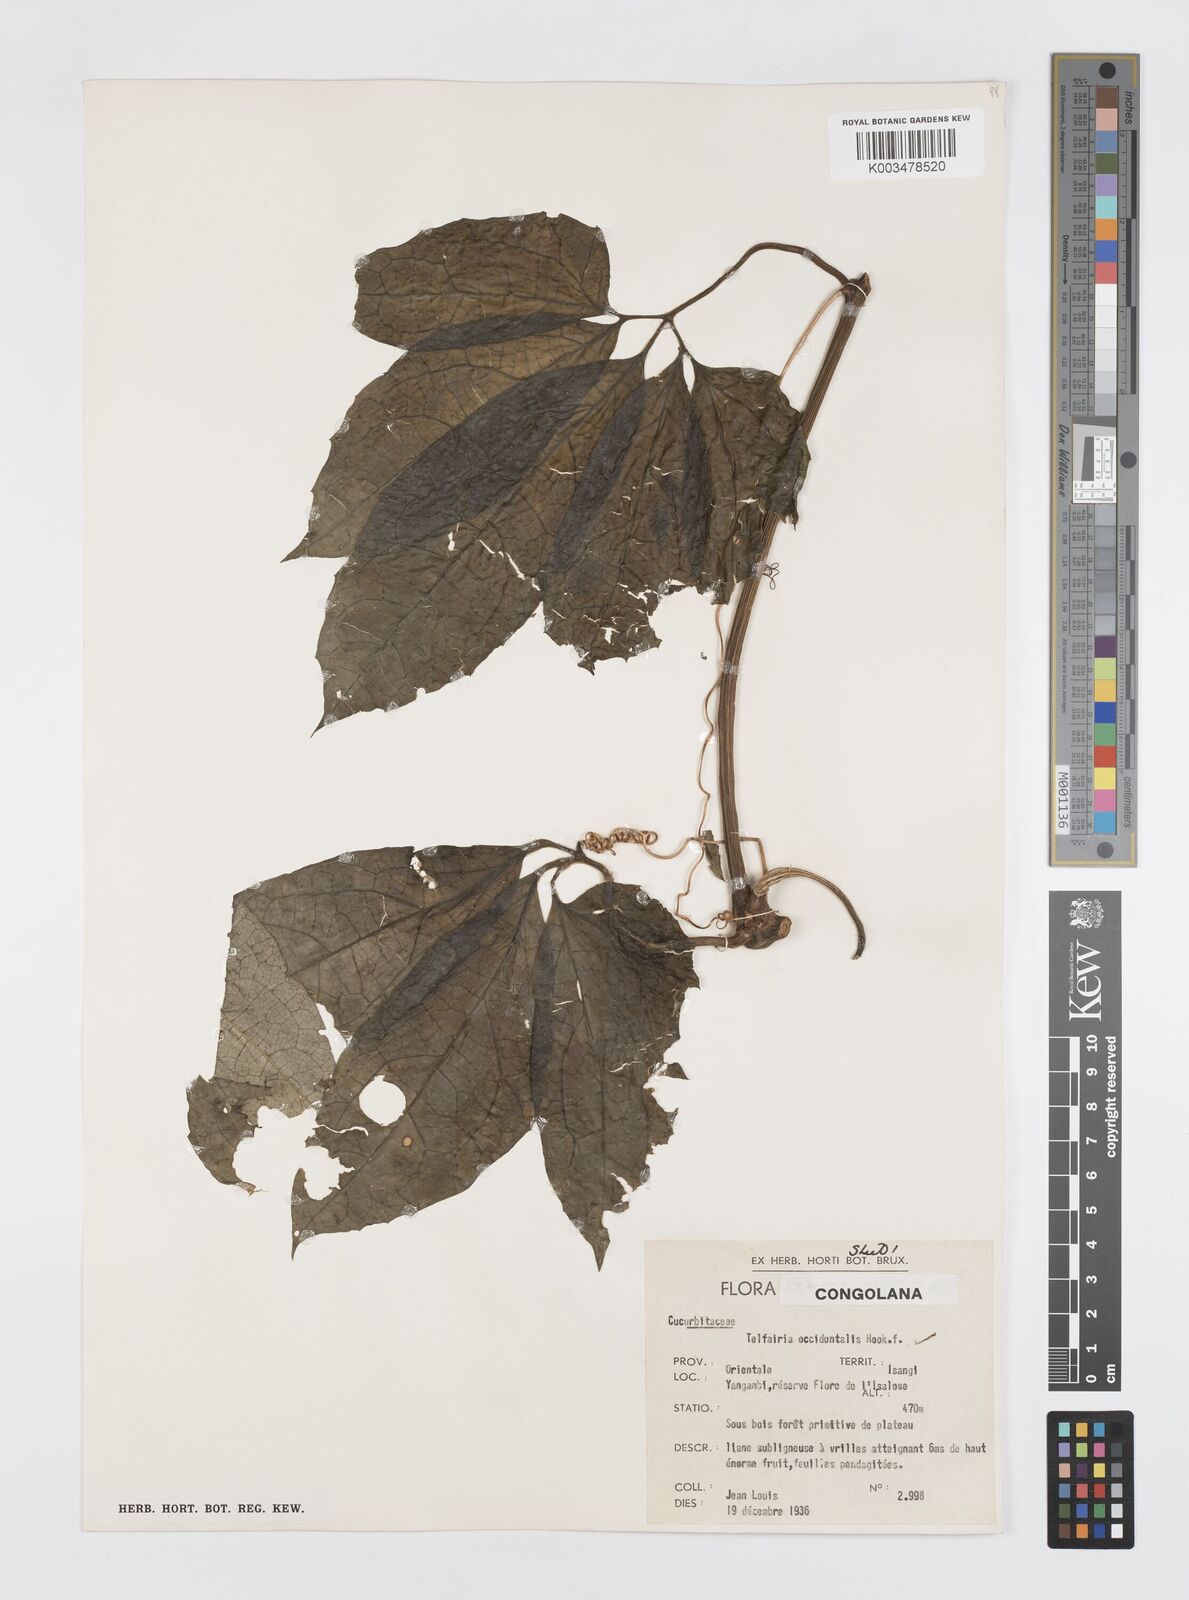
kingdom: Plantae
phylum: Tracheophyta
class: Magnoliopsida
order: Cucurbitales
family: Cucurbitaceae
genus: Telfairia
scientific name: Telfairia occidentalis
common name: Oysternut
